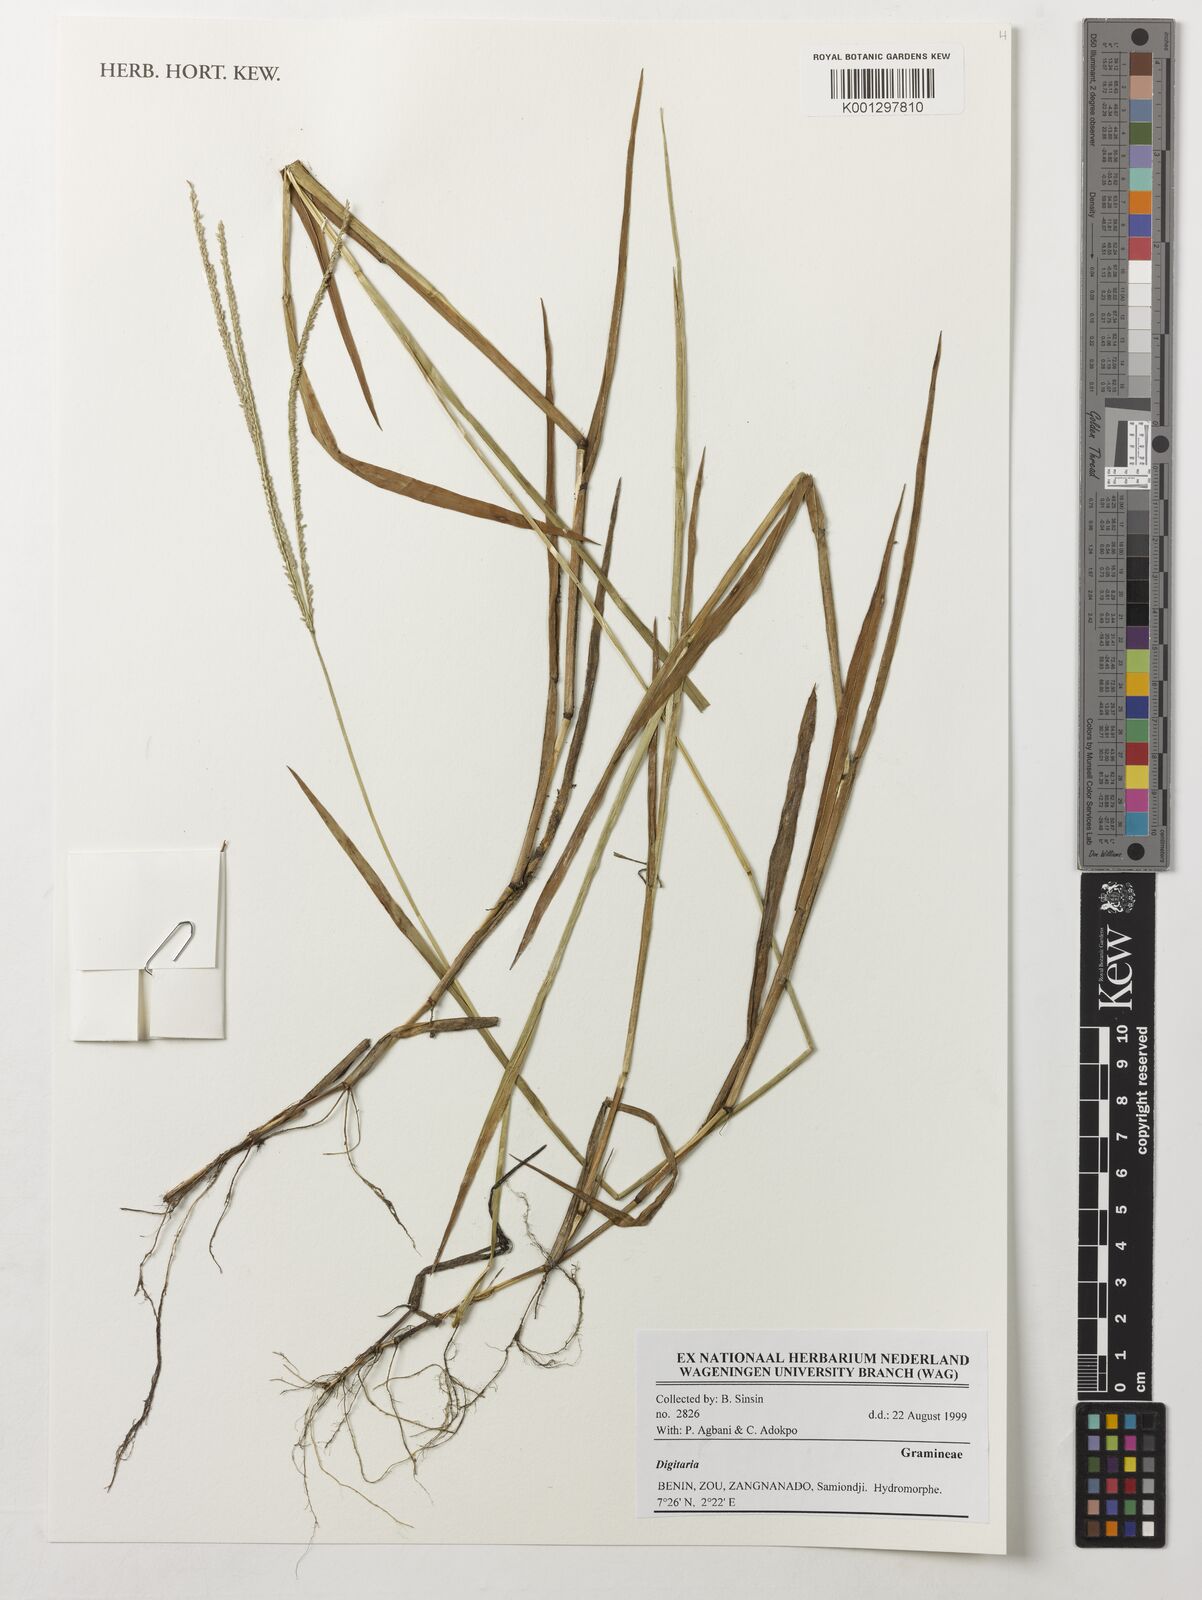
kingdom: Plantae
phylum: Tracheophyta
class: Liliopsida
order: Poales
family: Poaceae
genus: Digitaria
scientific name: Digitaria spec
